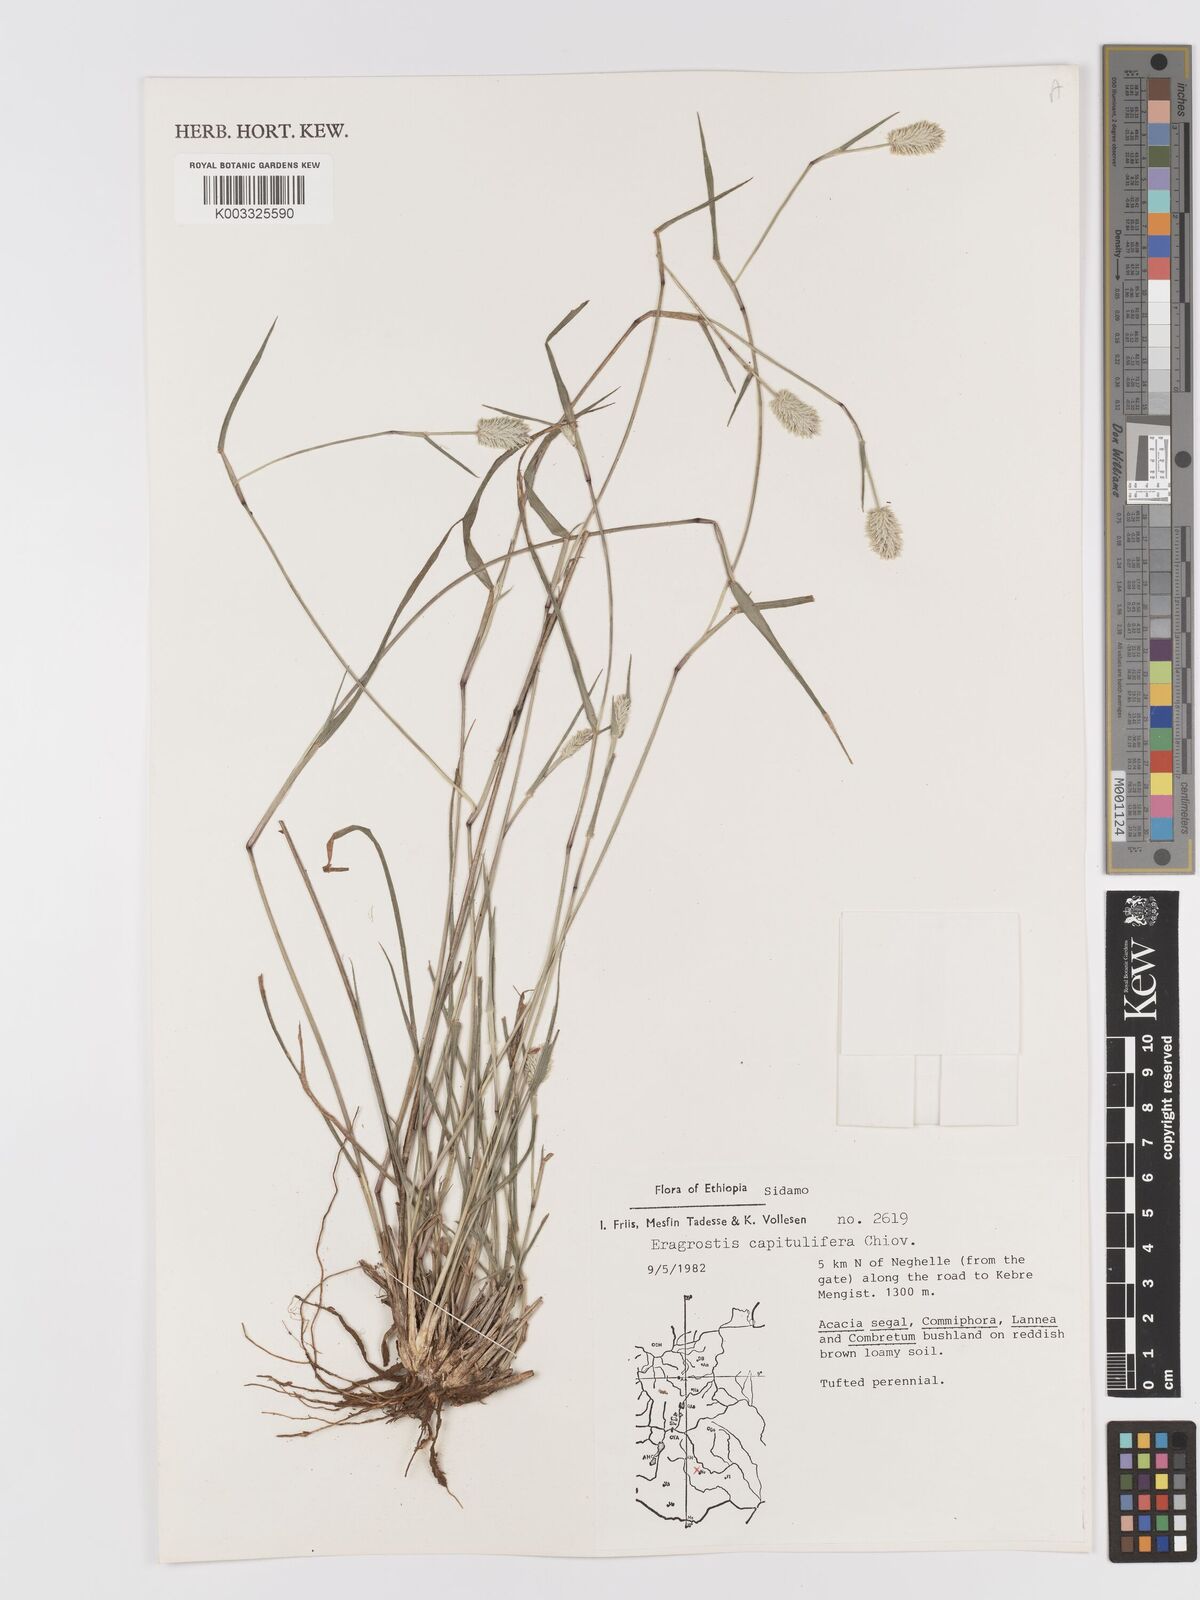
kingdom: Plantae
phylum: Tracheophyta
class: Liliopsida
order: Poales
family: Poaceae
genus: Eragrostis
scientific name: Eragrostis capitulifera
